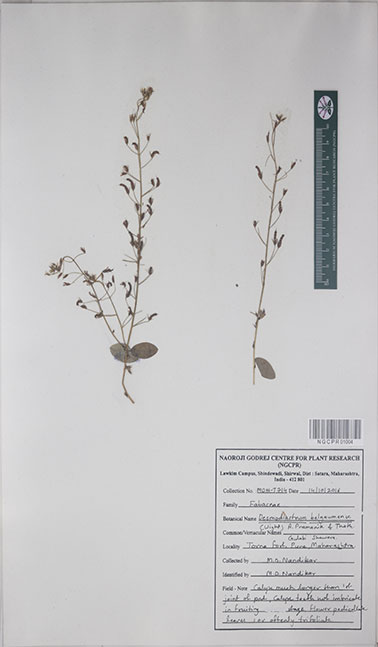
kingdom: Plantae
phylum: Tracheophyta
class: Magnoliopsida
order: Fabales
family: Fabaceae
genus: Alysicarpus
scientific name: Alysicarpus belgaumensis
